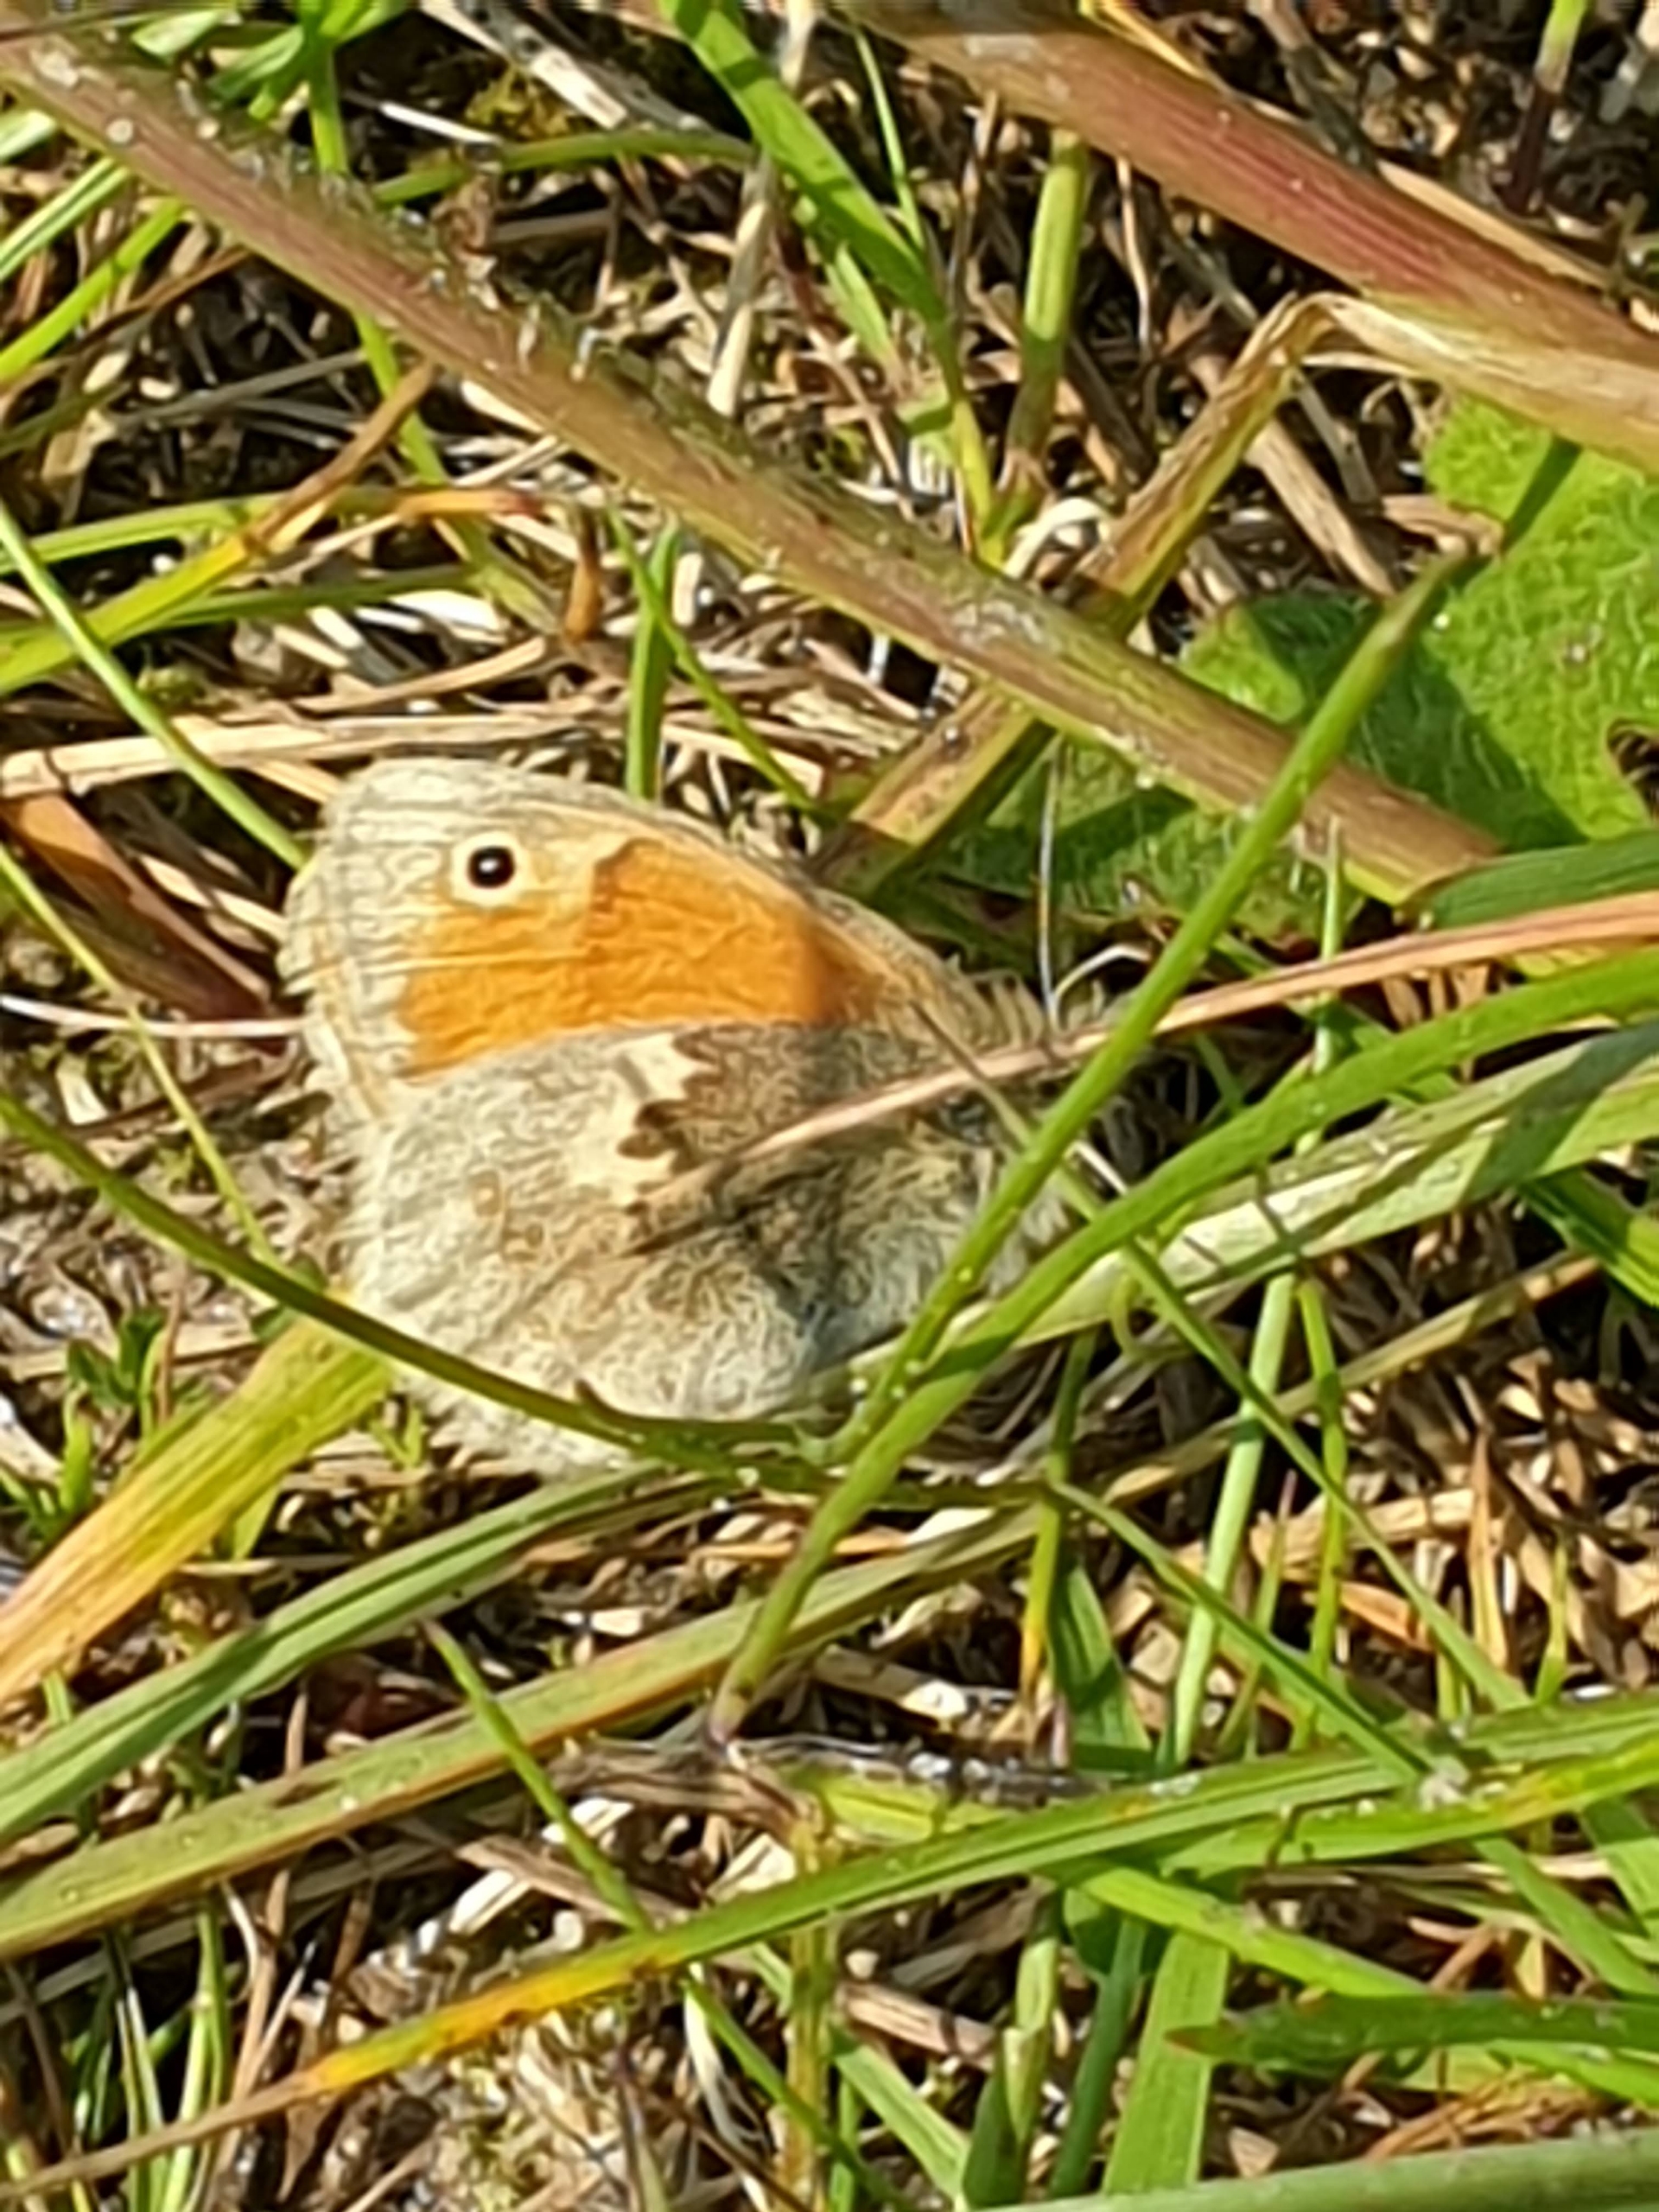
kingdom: Animalia
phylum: Arthropoda
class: Insecta
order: Lepidoptera
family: Nymphalidae
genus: Coenonympha
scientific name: Coenonympha pamphilus
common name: Okkergul randøje
